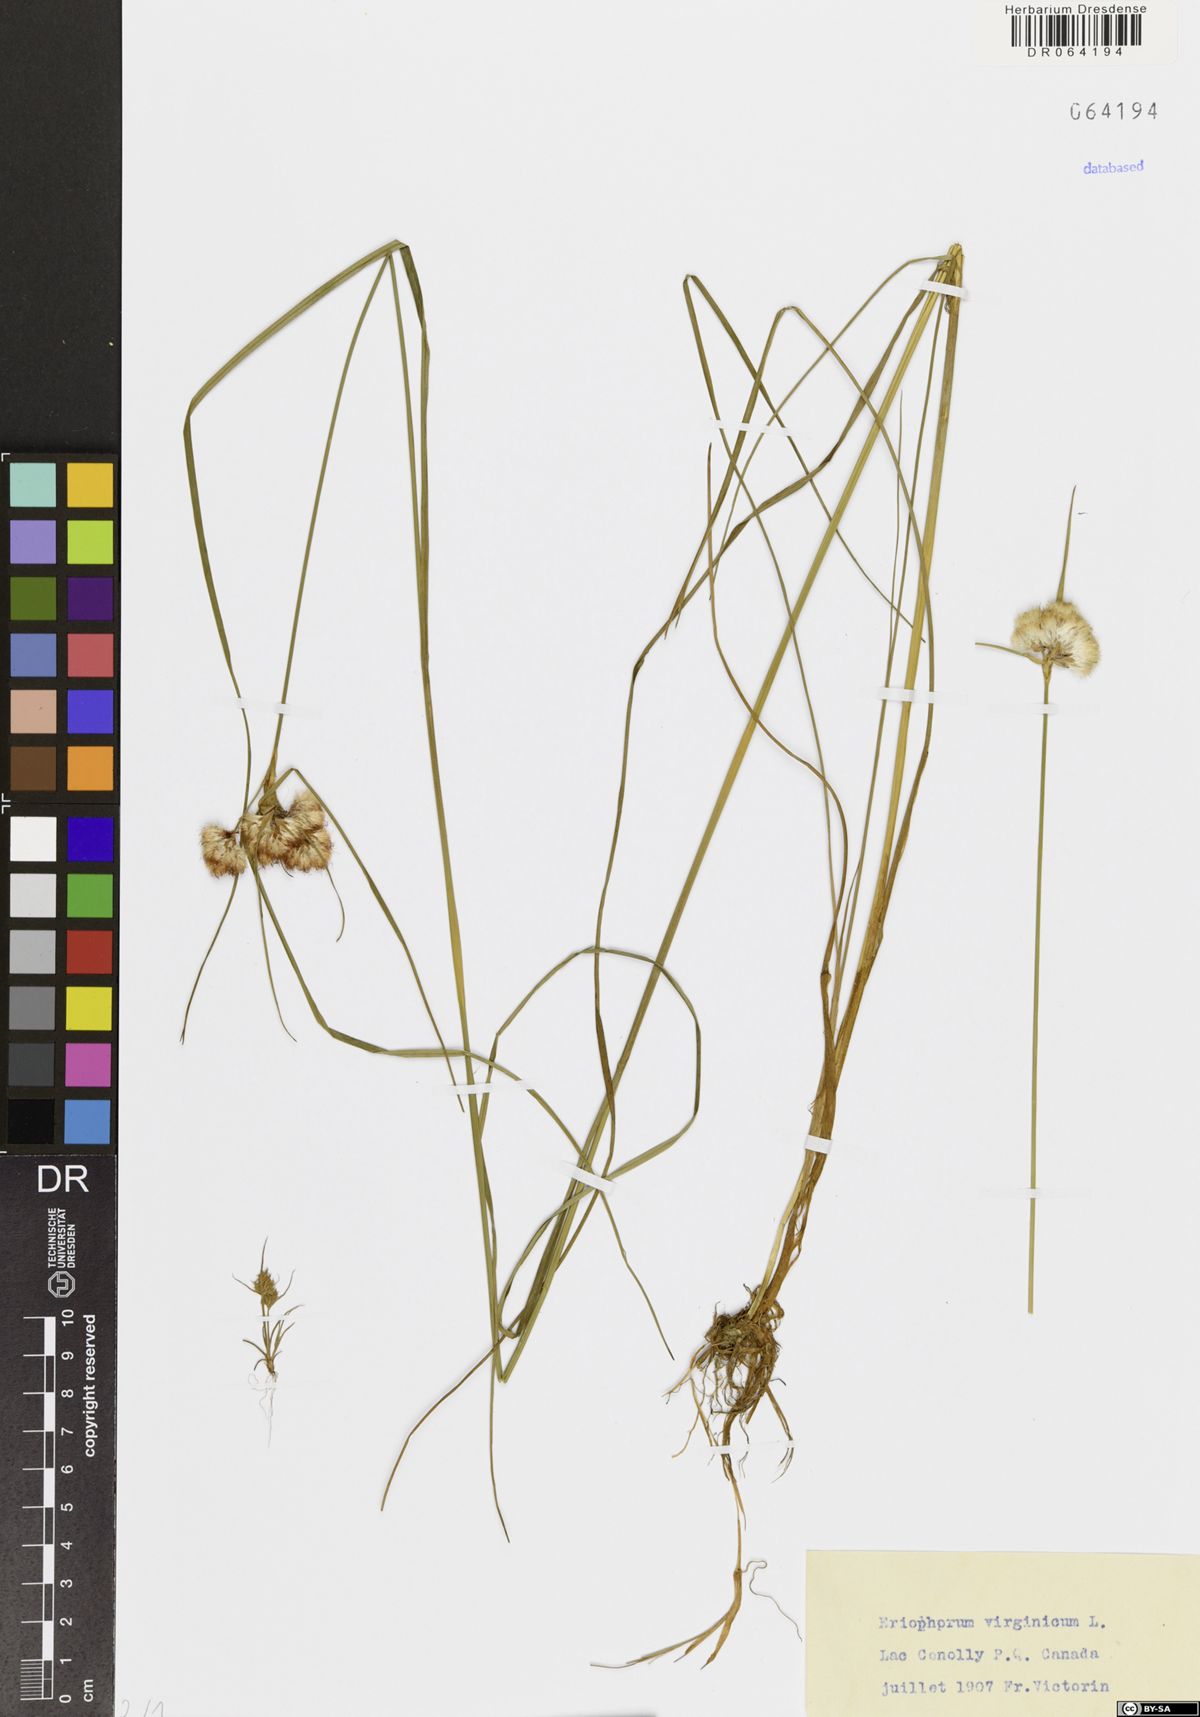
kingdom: Plantae
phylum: Tracheophyta
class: Liliopsida
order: Poales
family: Cyperaceae
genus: Eriophorum
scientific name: Eriophorum virginicum
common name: Tawny cottongrass
